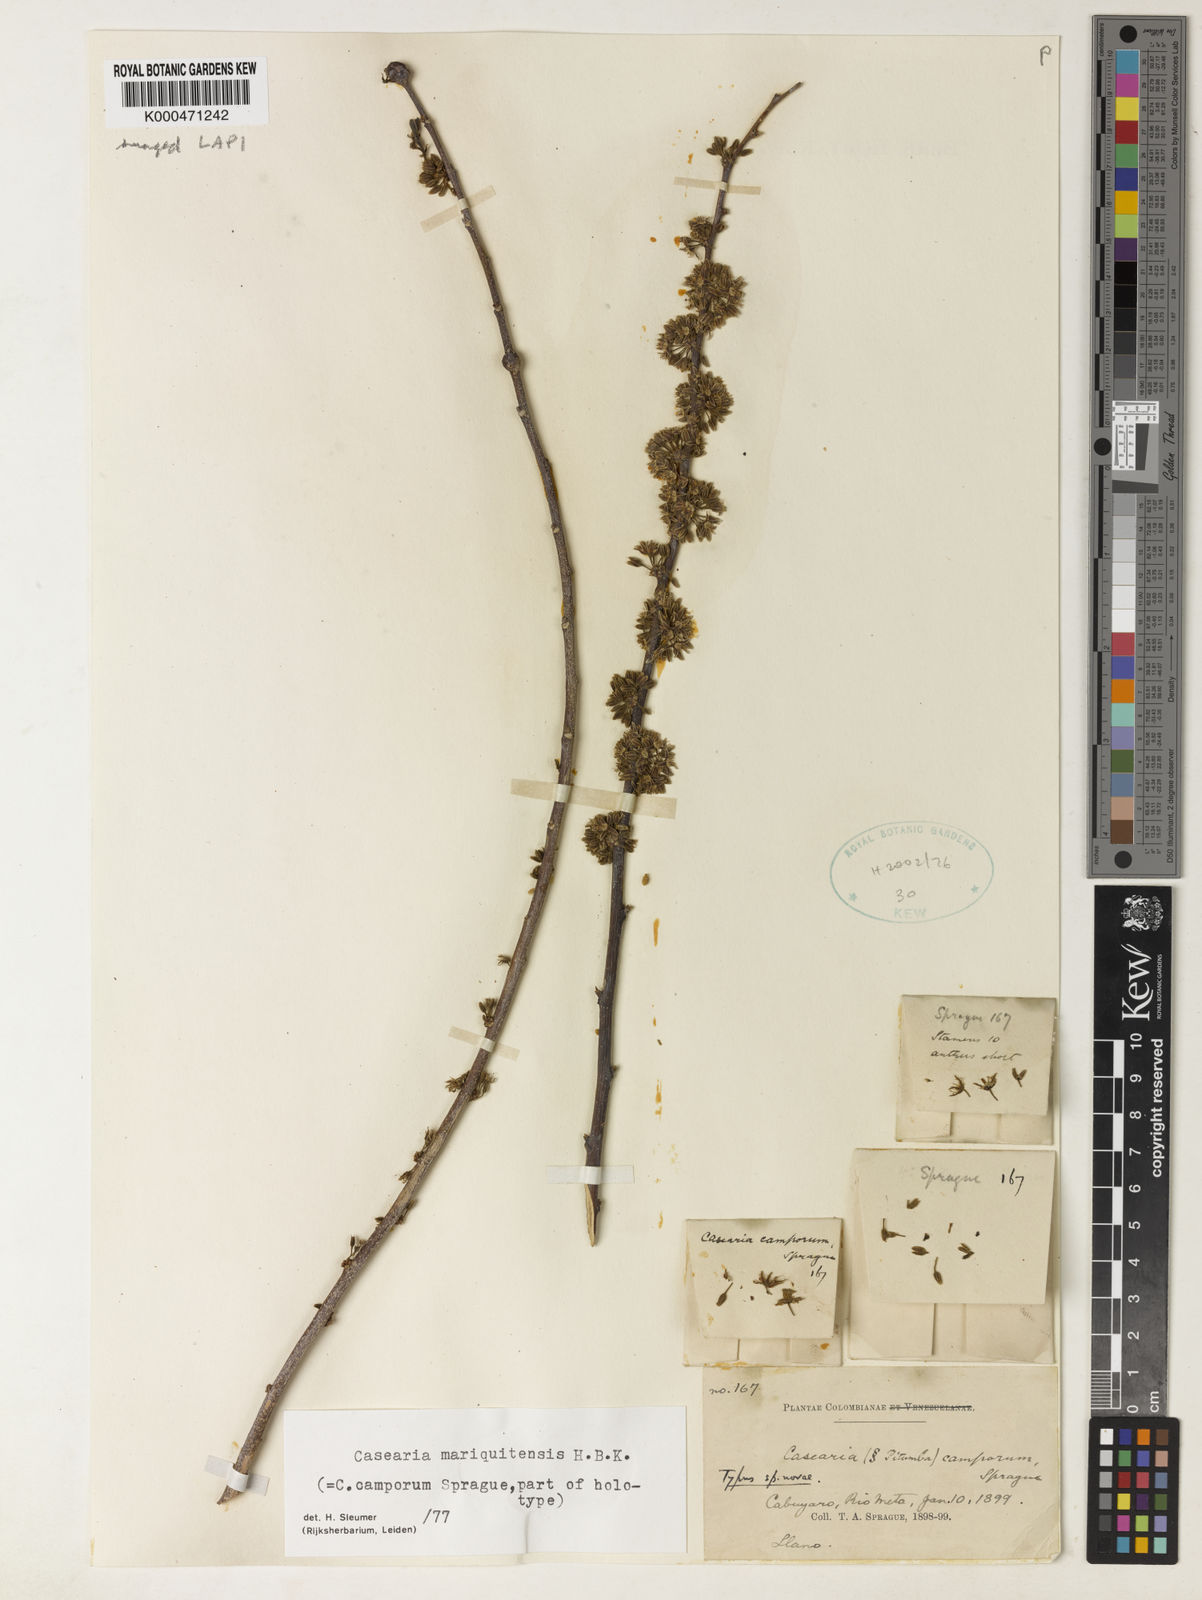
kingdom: Plantae
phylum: Tracheophyta
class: Magnoliopsida
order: Malpighiales
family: Salicaceae
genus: Casearia
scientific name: Casearia mariquitensis
